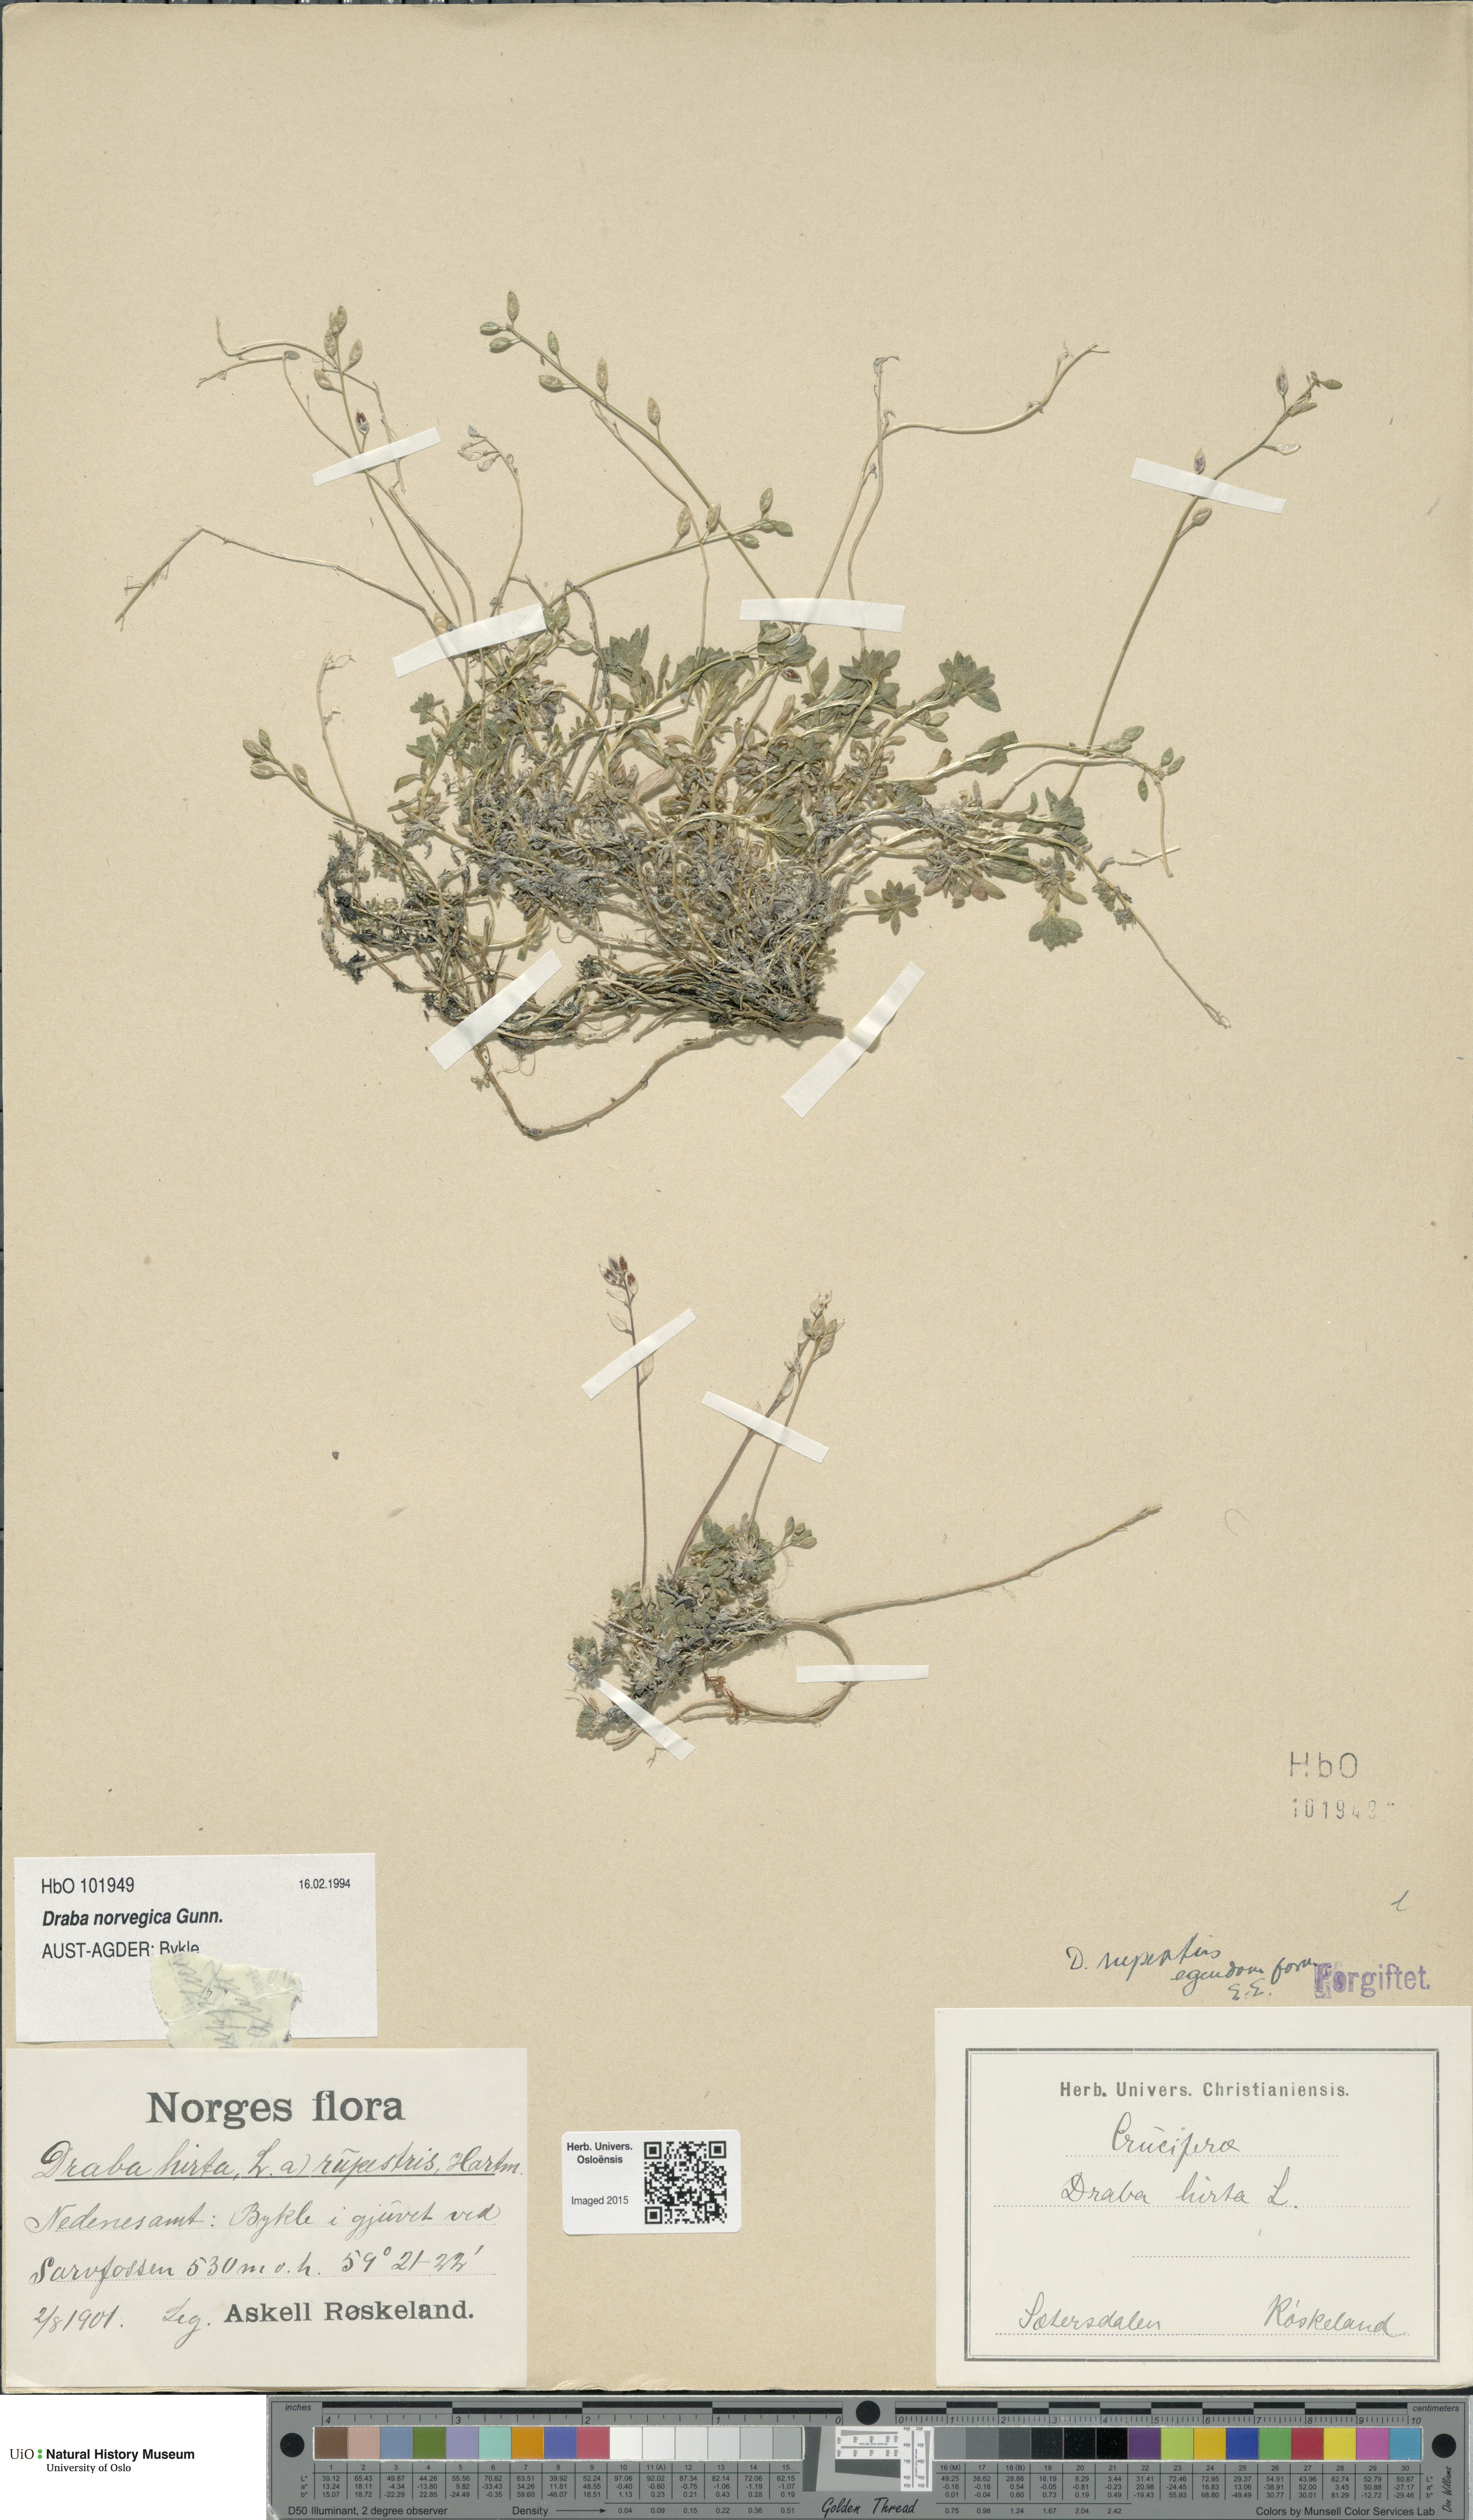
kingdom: Plantae
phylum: Tracheophyta
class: Magnoliopsida
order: Brassicales
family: Brassicaceae
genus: Draba
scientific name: Draba norvegica
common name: Rock whitlowgrass
